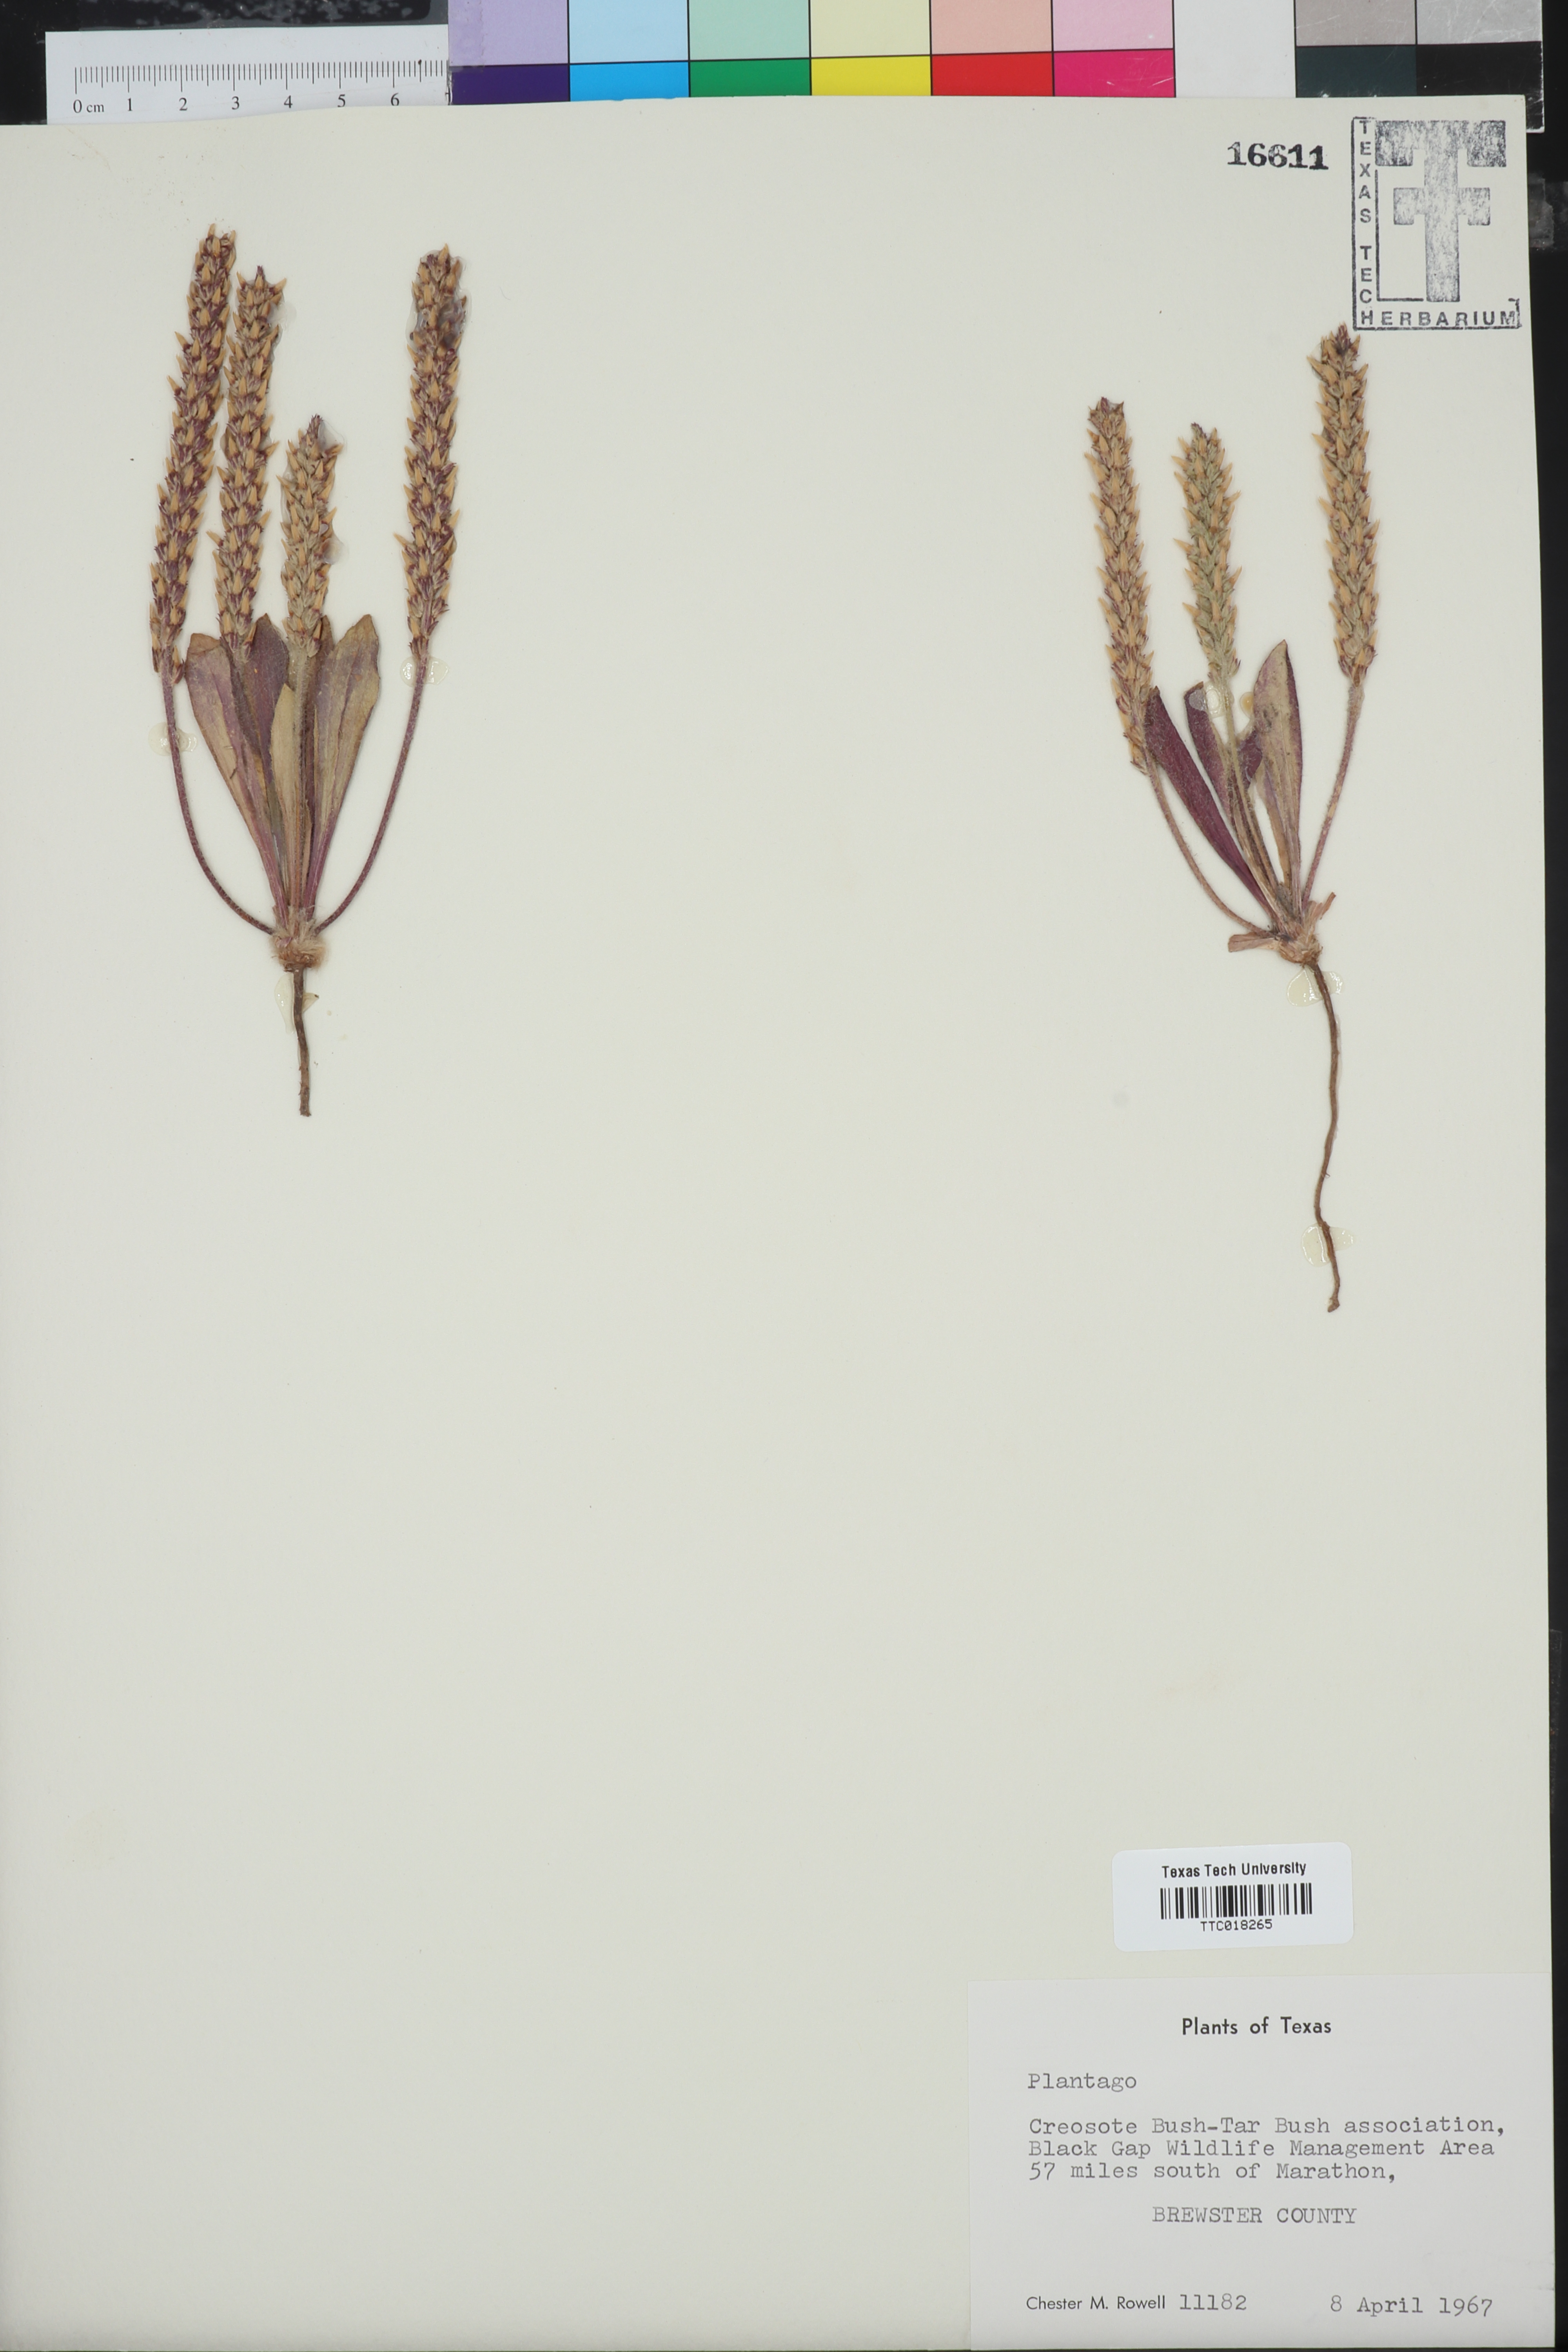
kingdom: Plantae
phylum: Tracheophyta
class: Magnoliopsida
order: Lamiales
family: Plantaginaceae
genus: Plantago
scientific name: Plantago
